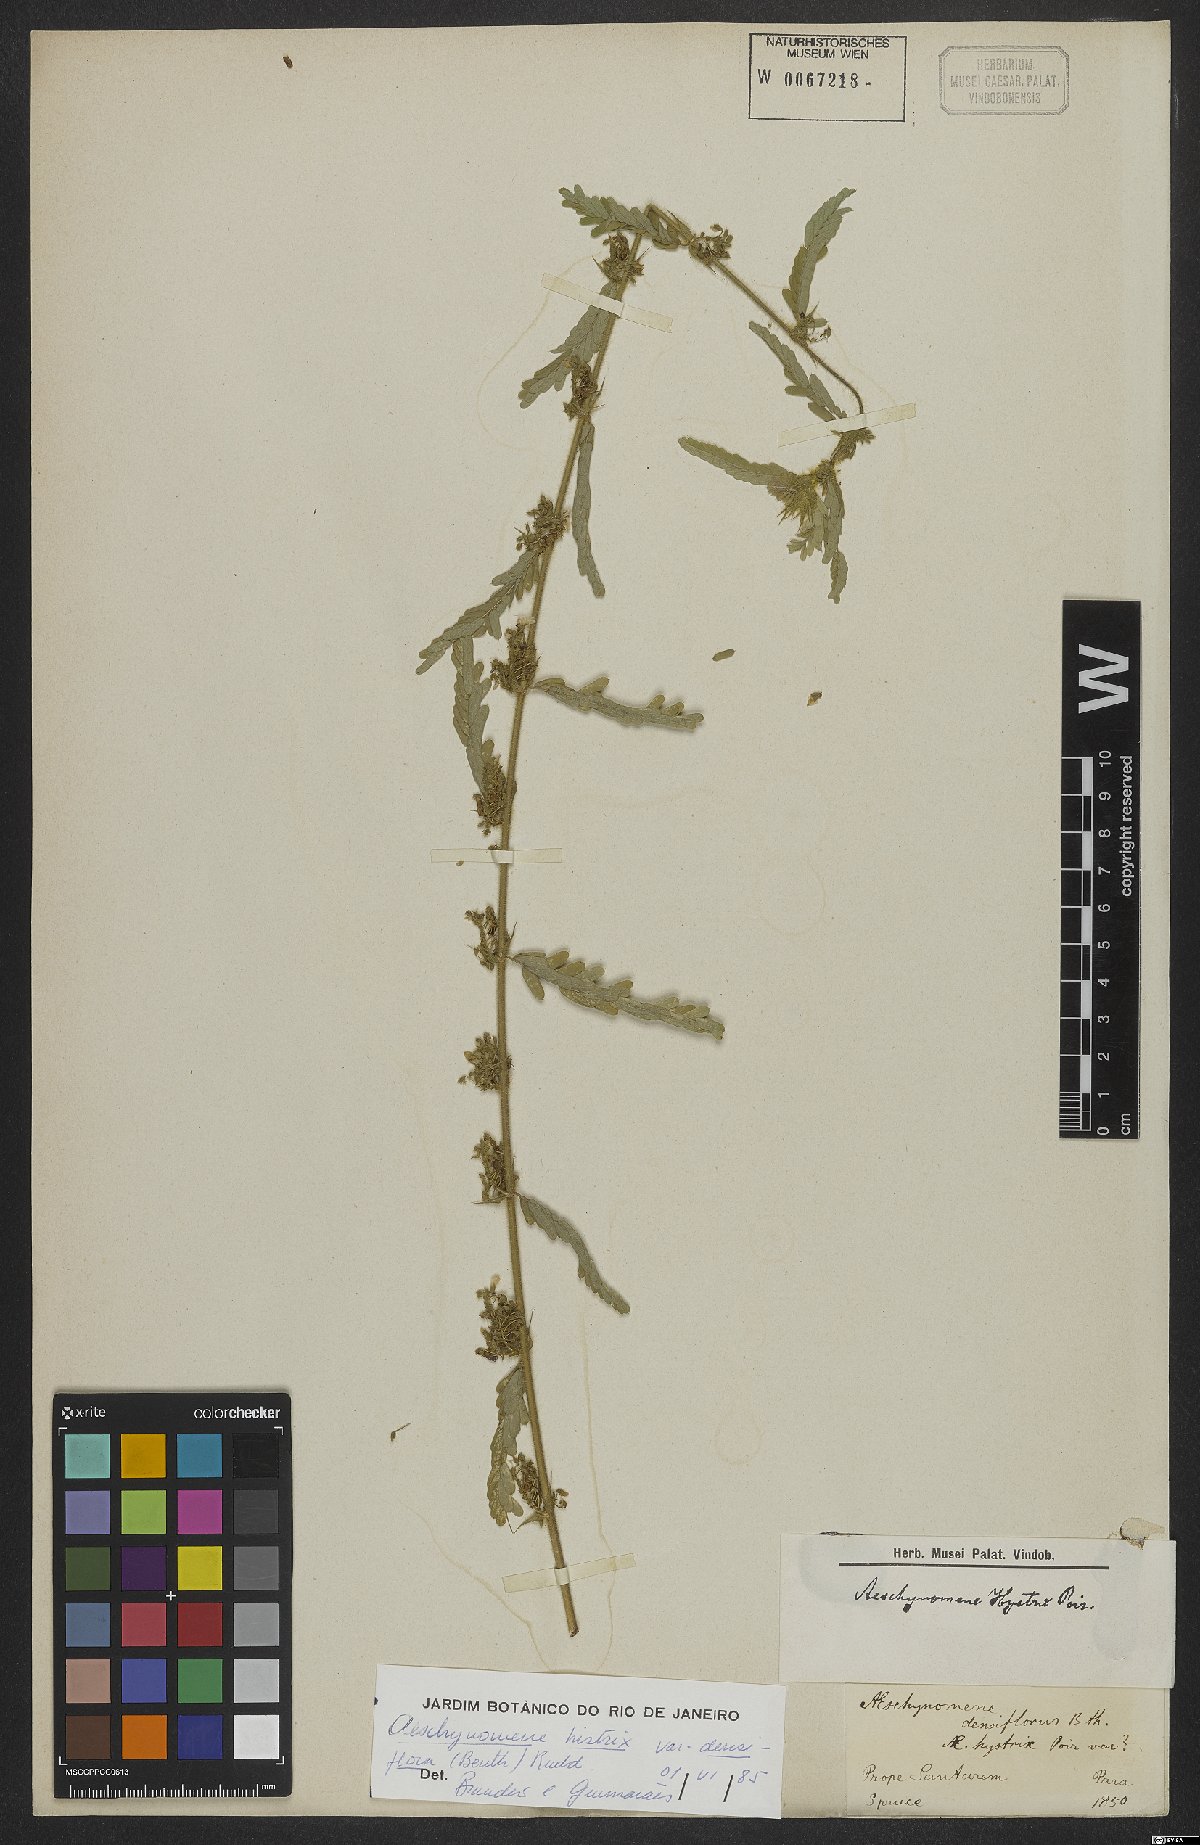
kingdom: Plantae
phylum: Tracheophyta
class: Magnoliopsida
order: Fabales
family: Fabaceae
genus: Ctenodon
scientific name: Ctenodon histrix
